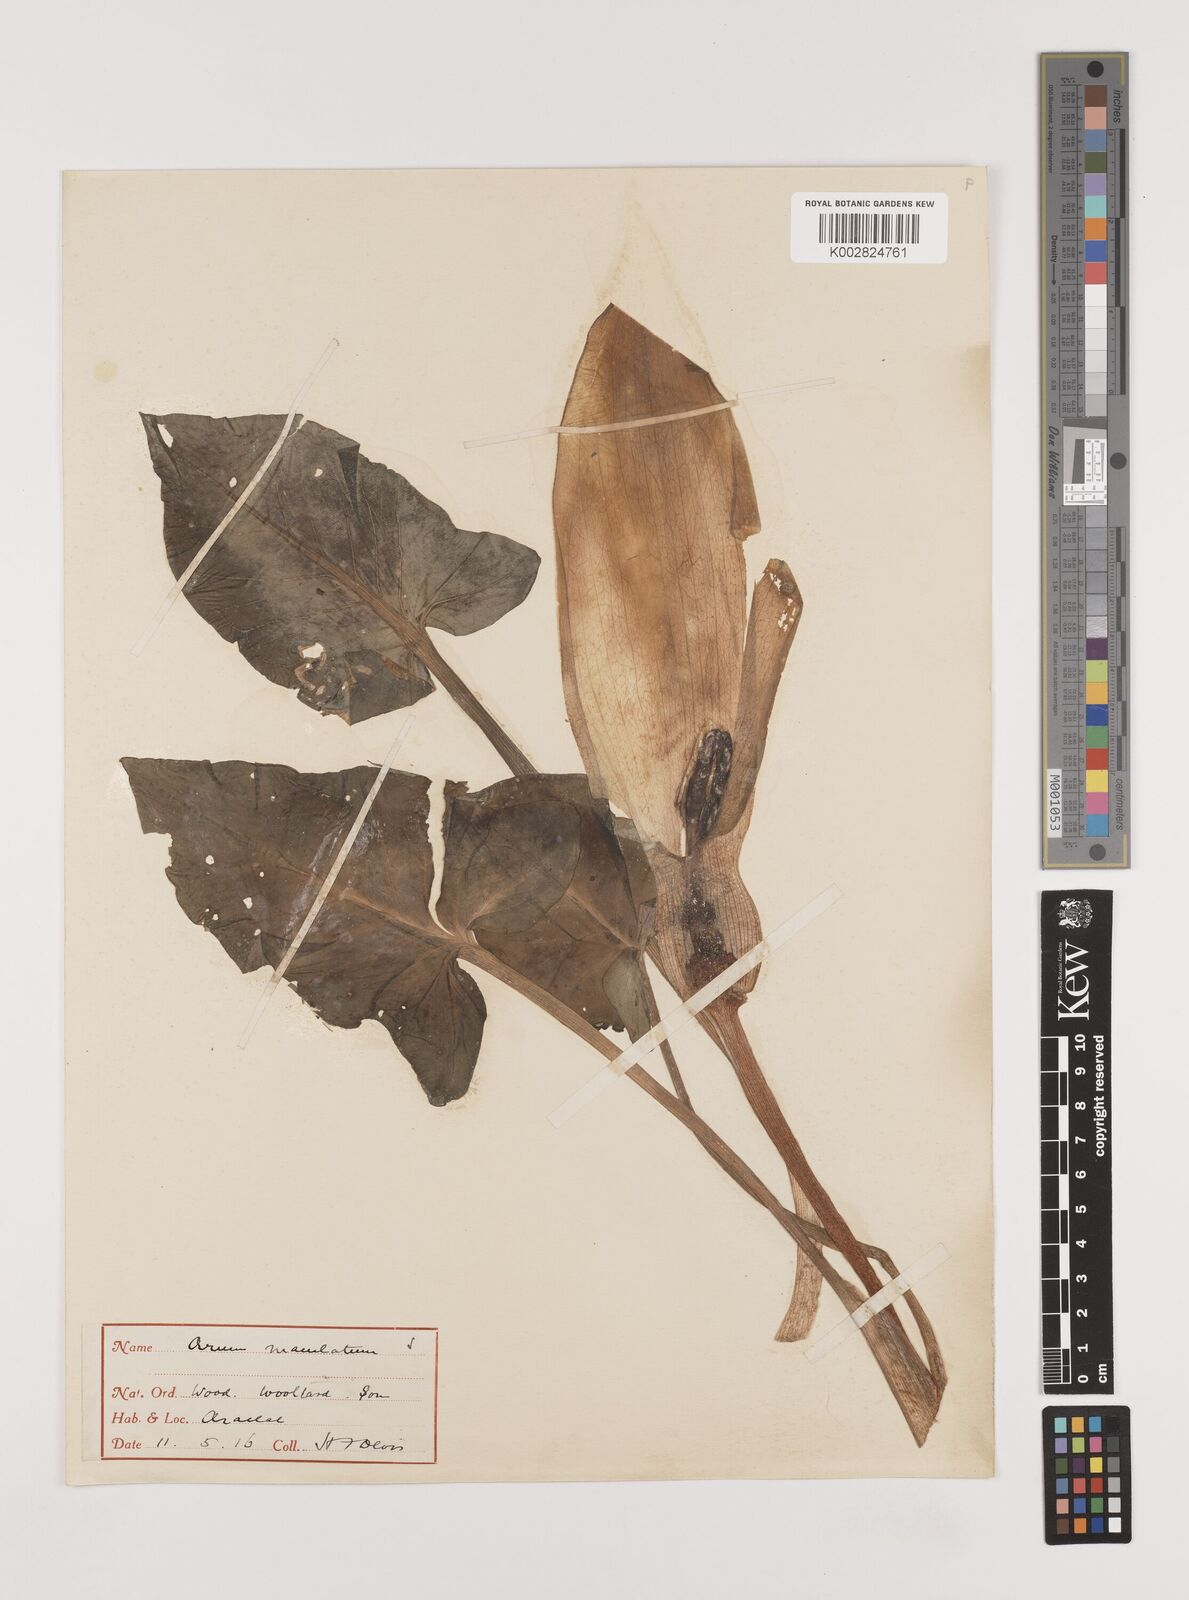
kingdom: Plantae
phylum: Tracheophyta
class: Liliopsida
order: Alismatales
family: Araceae
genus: Arum
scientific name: Arum maculatum
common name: Lords-and-ladies
